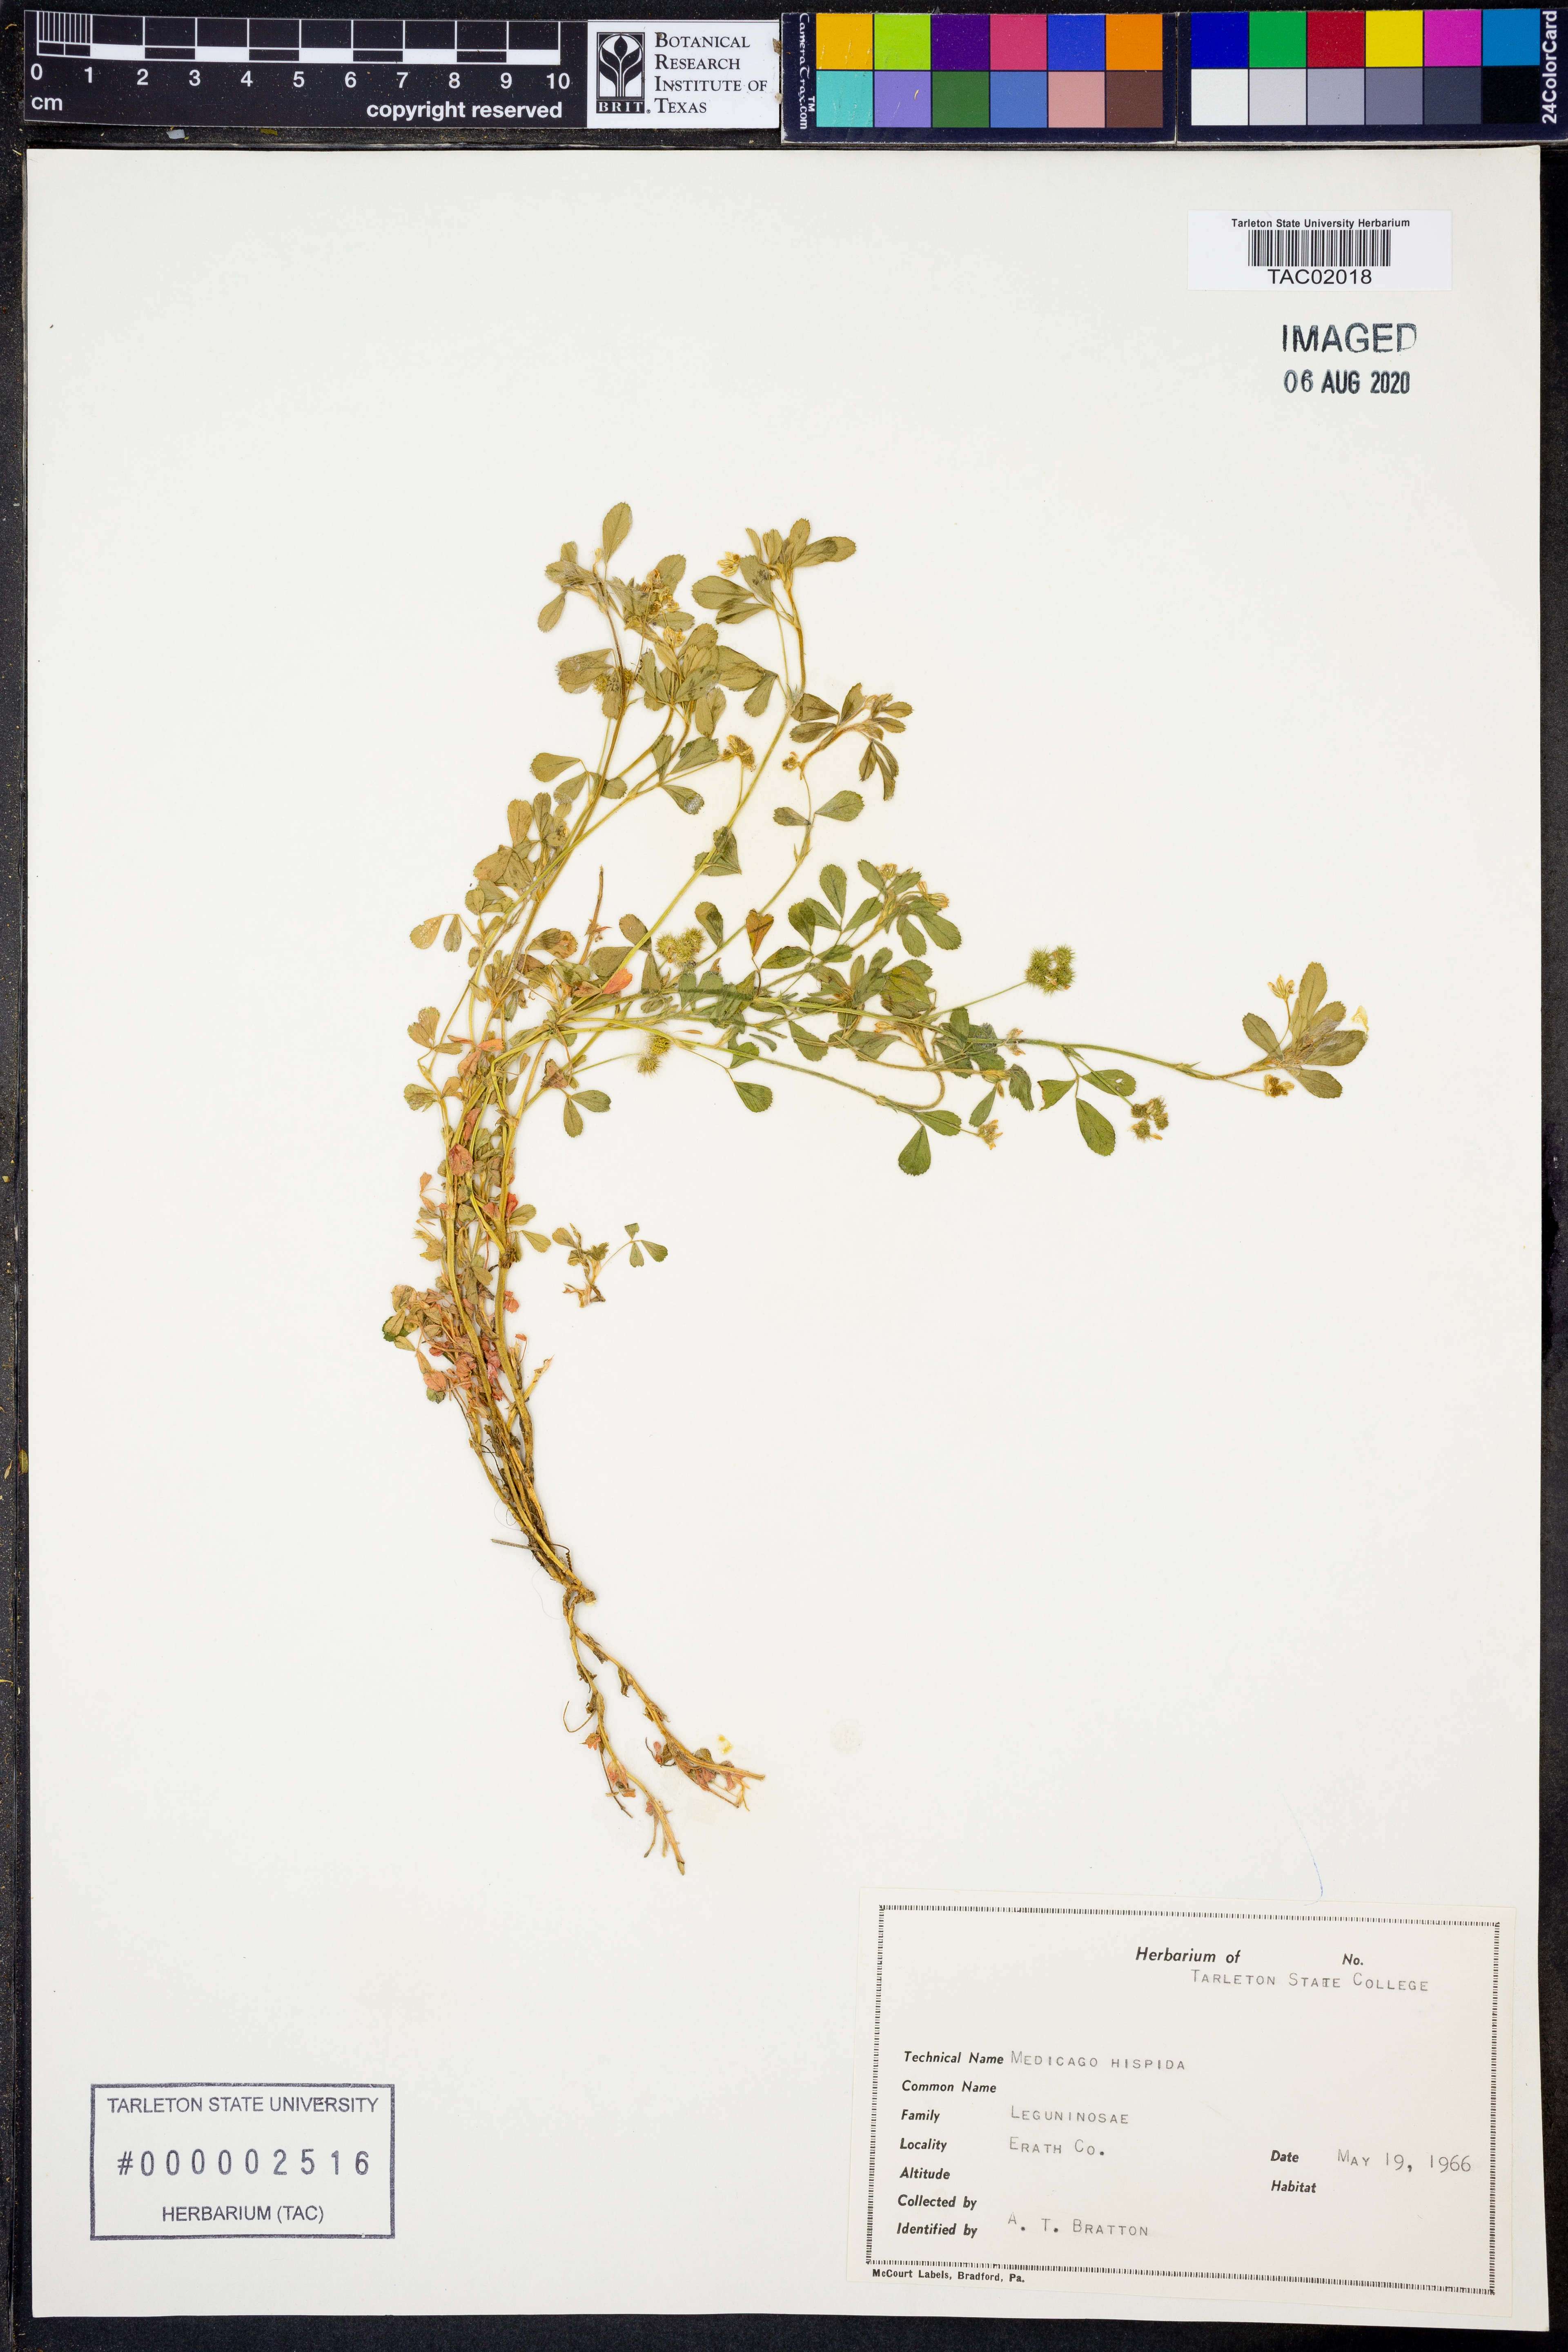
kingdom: Plantae
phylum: Tracheophyta
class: Magnoliopsida
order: Fabales
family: Fabaceae
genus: Medicago
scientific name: Medicago polymorpha
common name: Burclover
